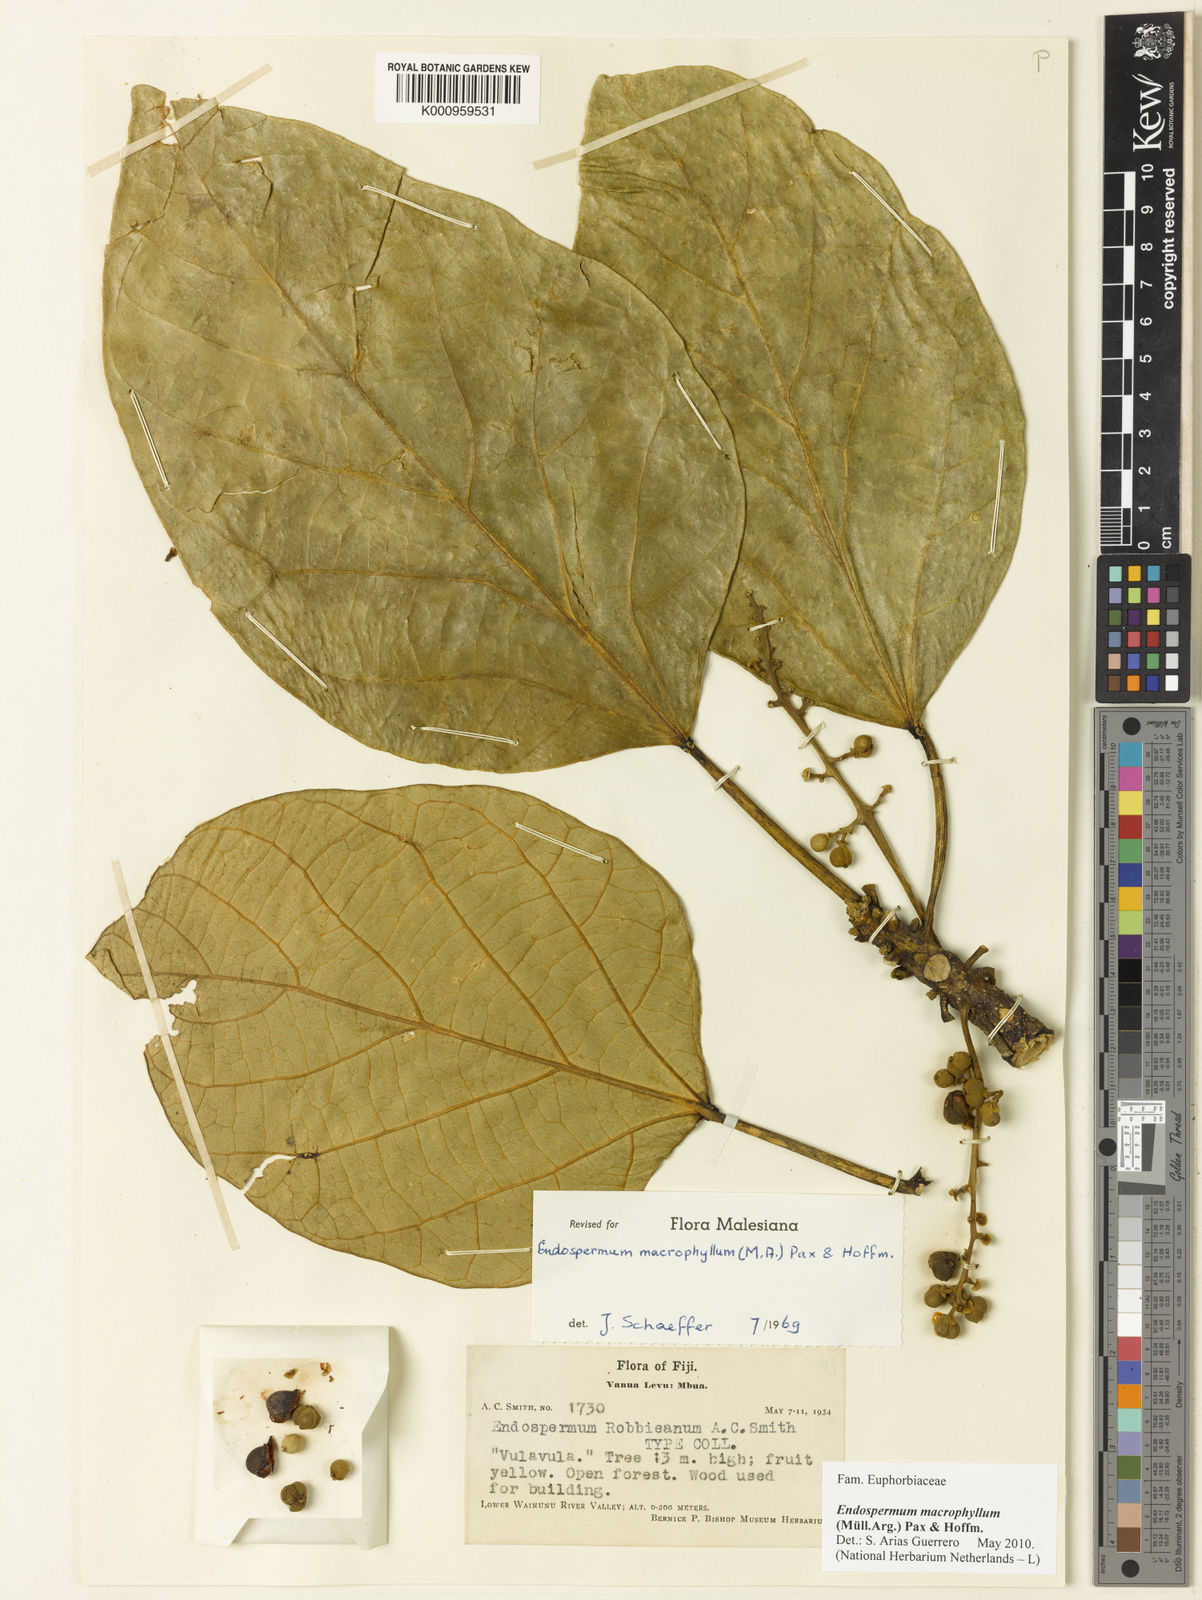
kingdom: Plantae
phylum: Tracheophyta
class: Magnoliopsida
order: Malpighiales
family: Euphorbiaceae
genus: Endospermum
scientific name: Endospermum
